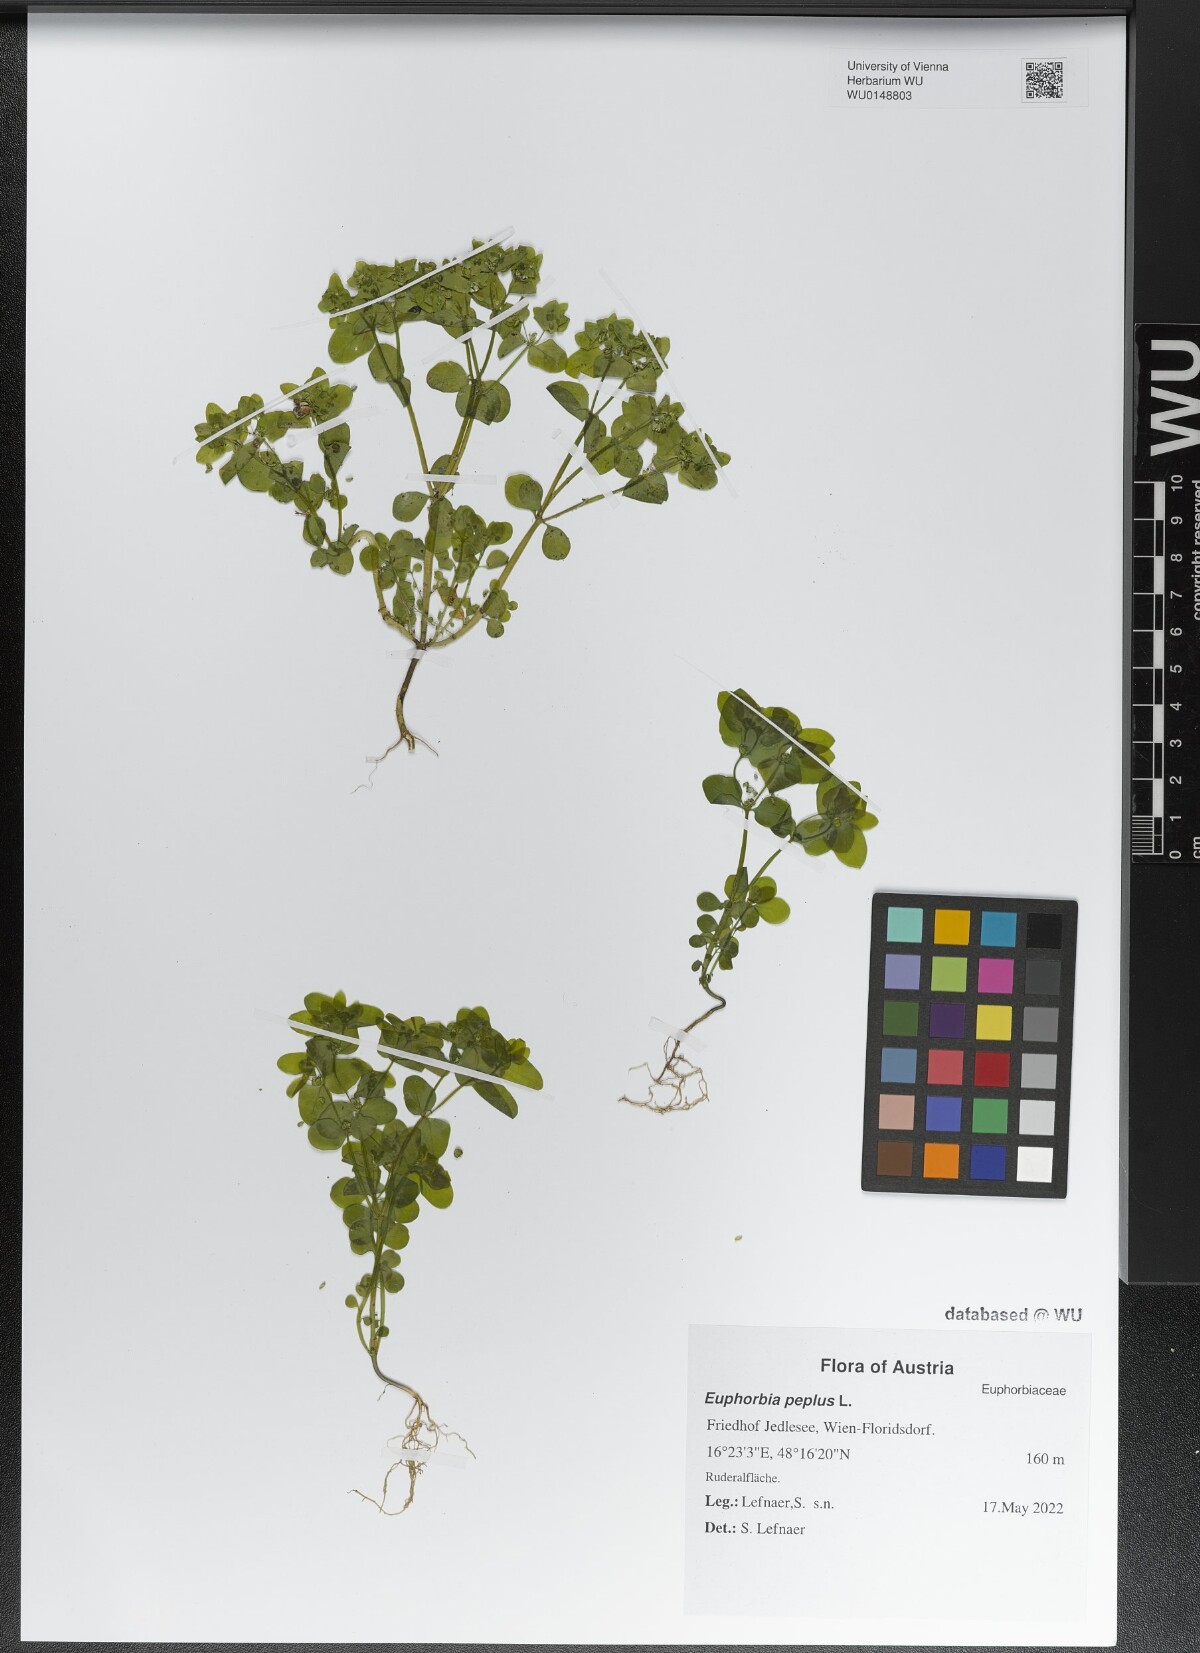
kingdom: Plantae
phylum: Tracheophyta
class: Magnoliopsida
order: Malpighiales
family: Euphorbiaceae
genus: Euphorbia
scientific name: Euphorbia peplus
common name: Petty spurge
